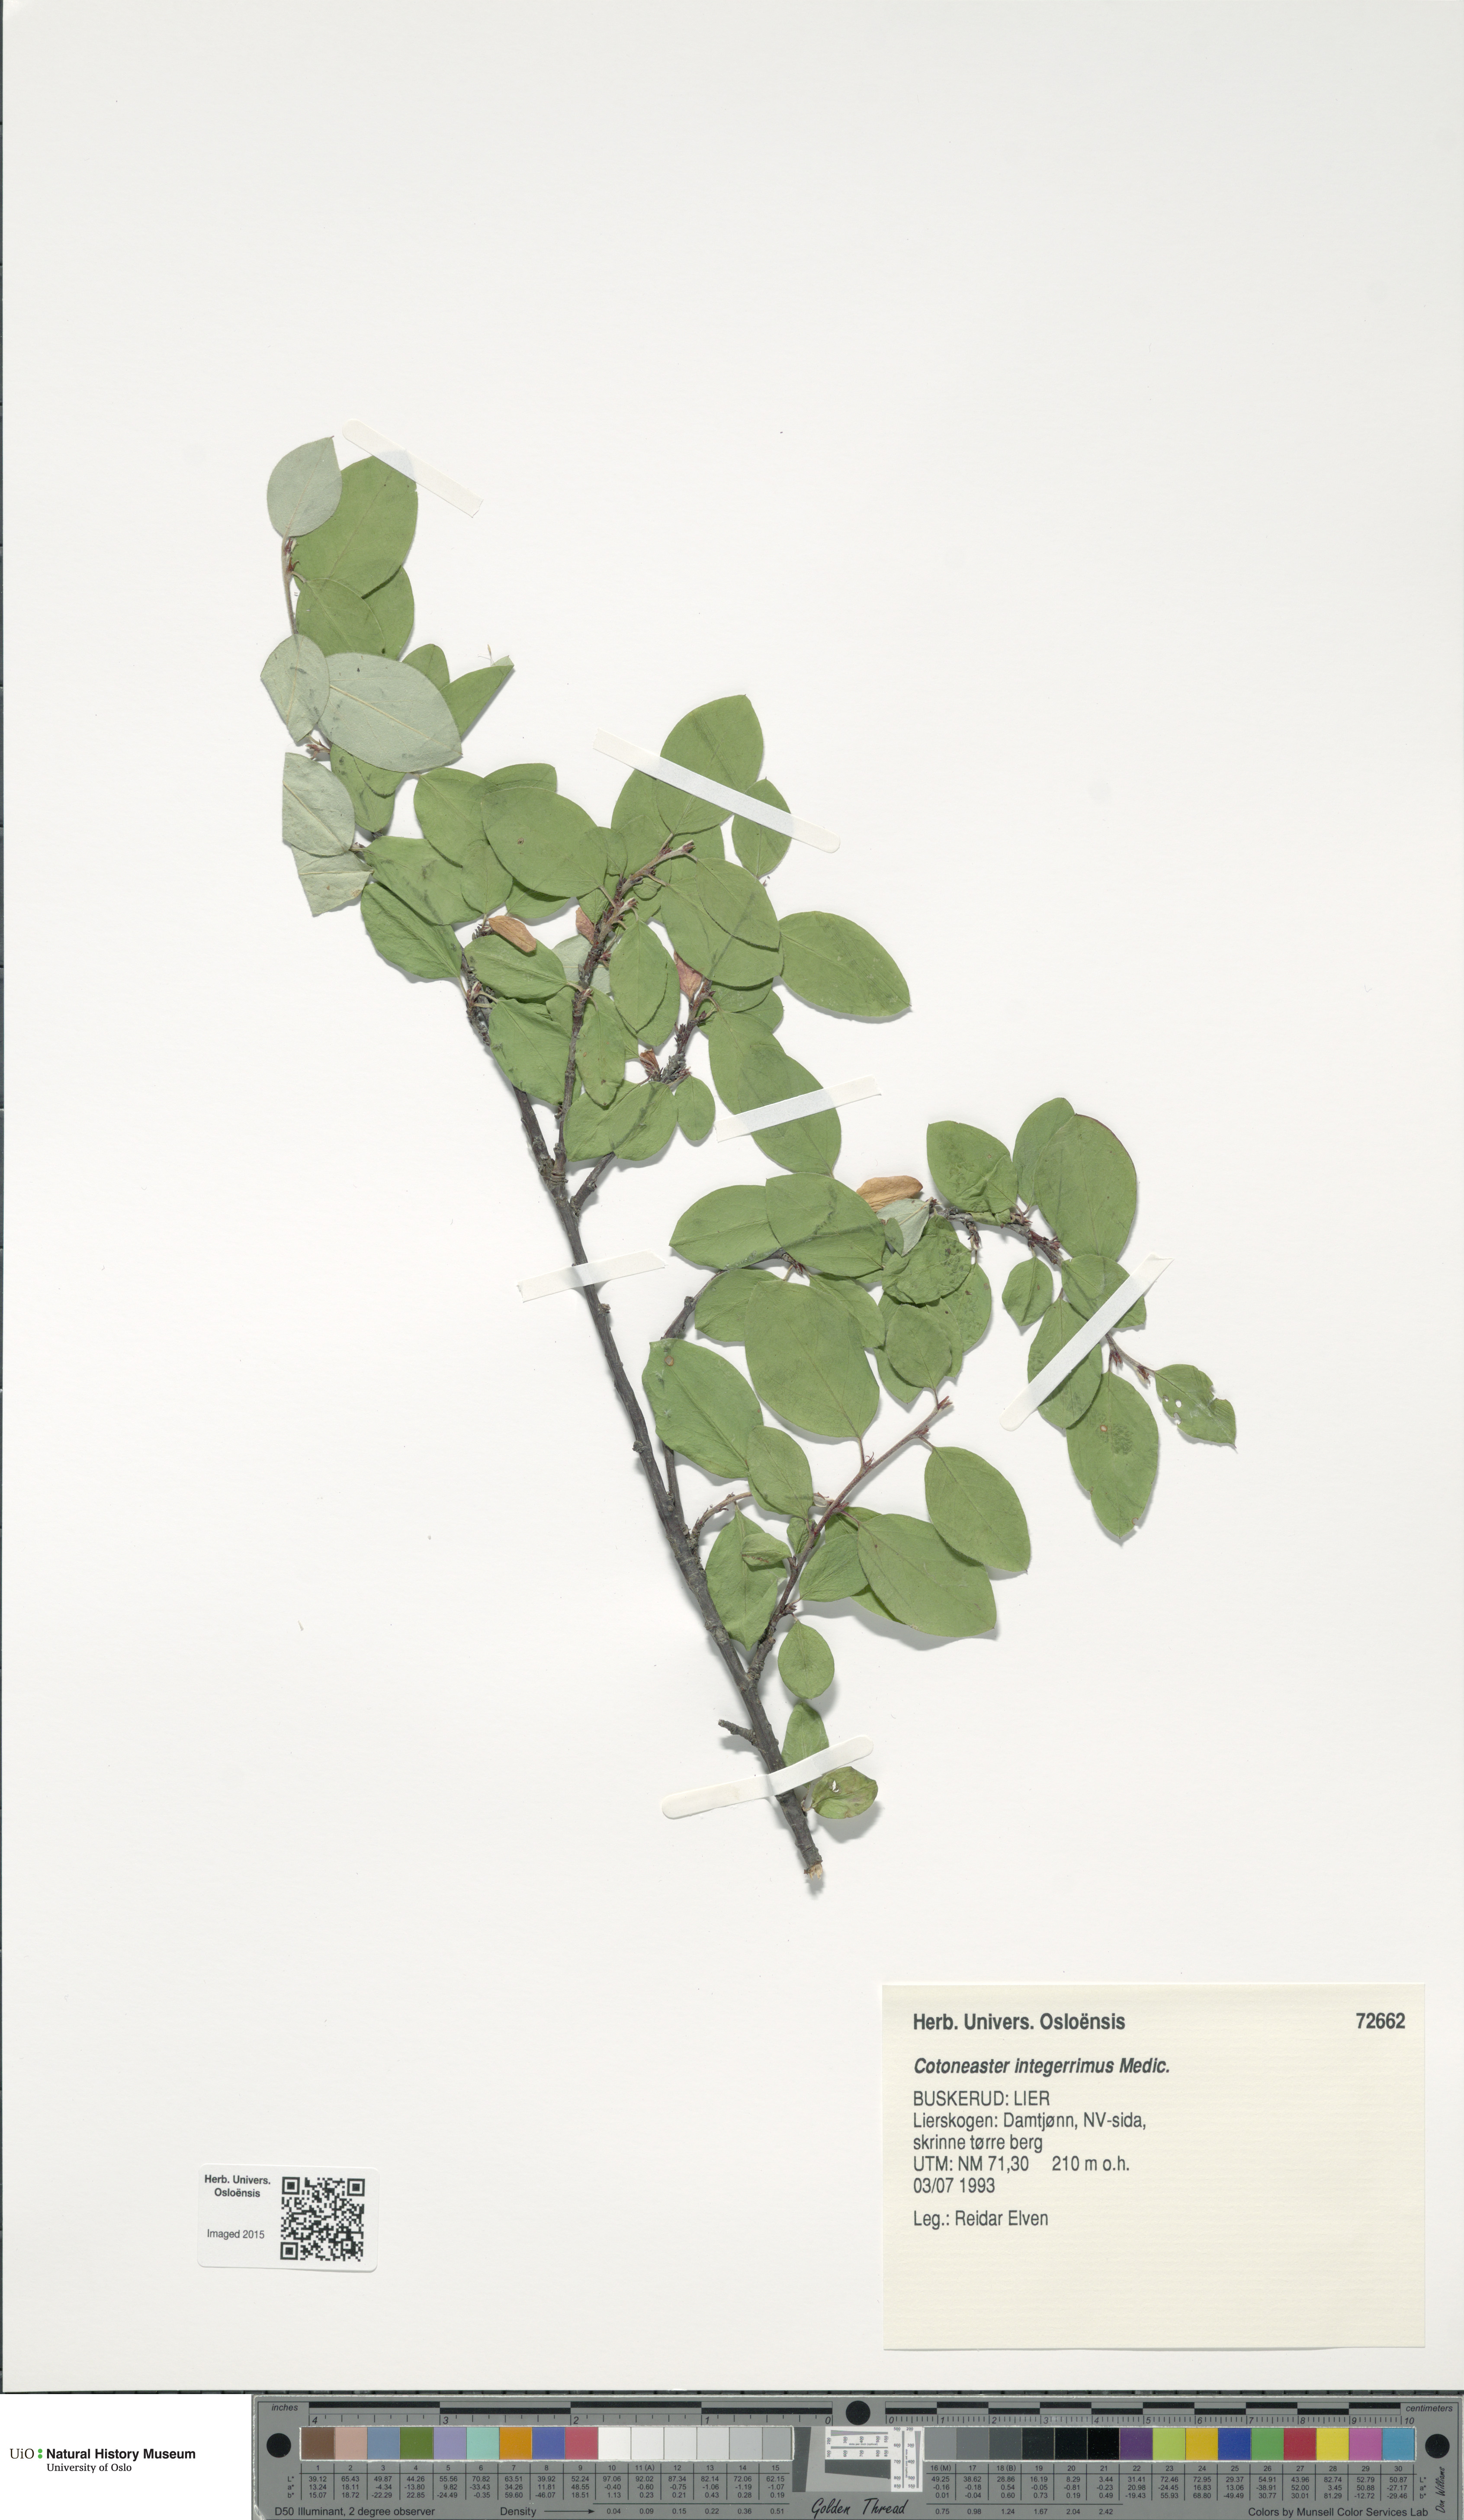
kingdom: Plantae
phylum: Tracheophyta
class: Magnoliopsida
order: Rosales
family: Rosaceae
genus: Cotoneaster
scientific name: Cotoneaster integerrimus
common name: Wild cotoneaster
